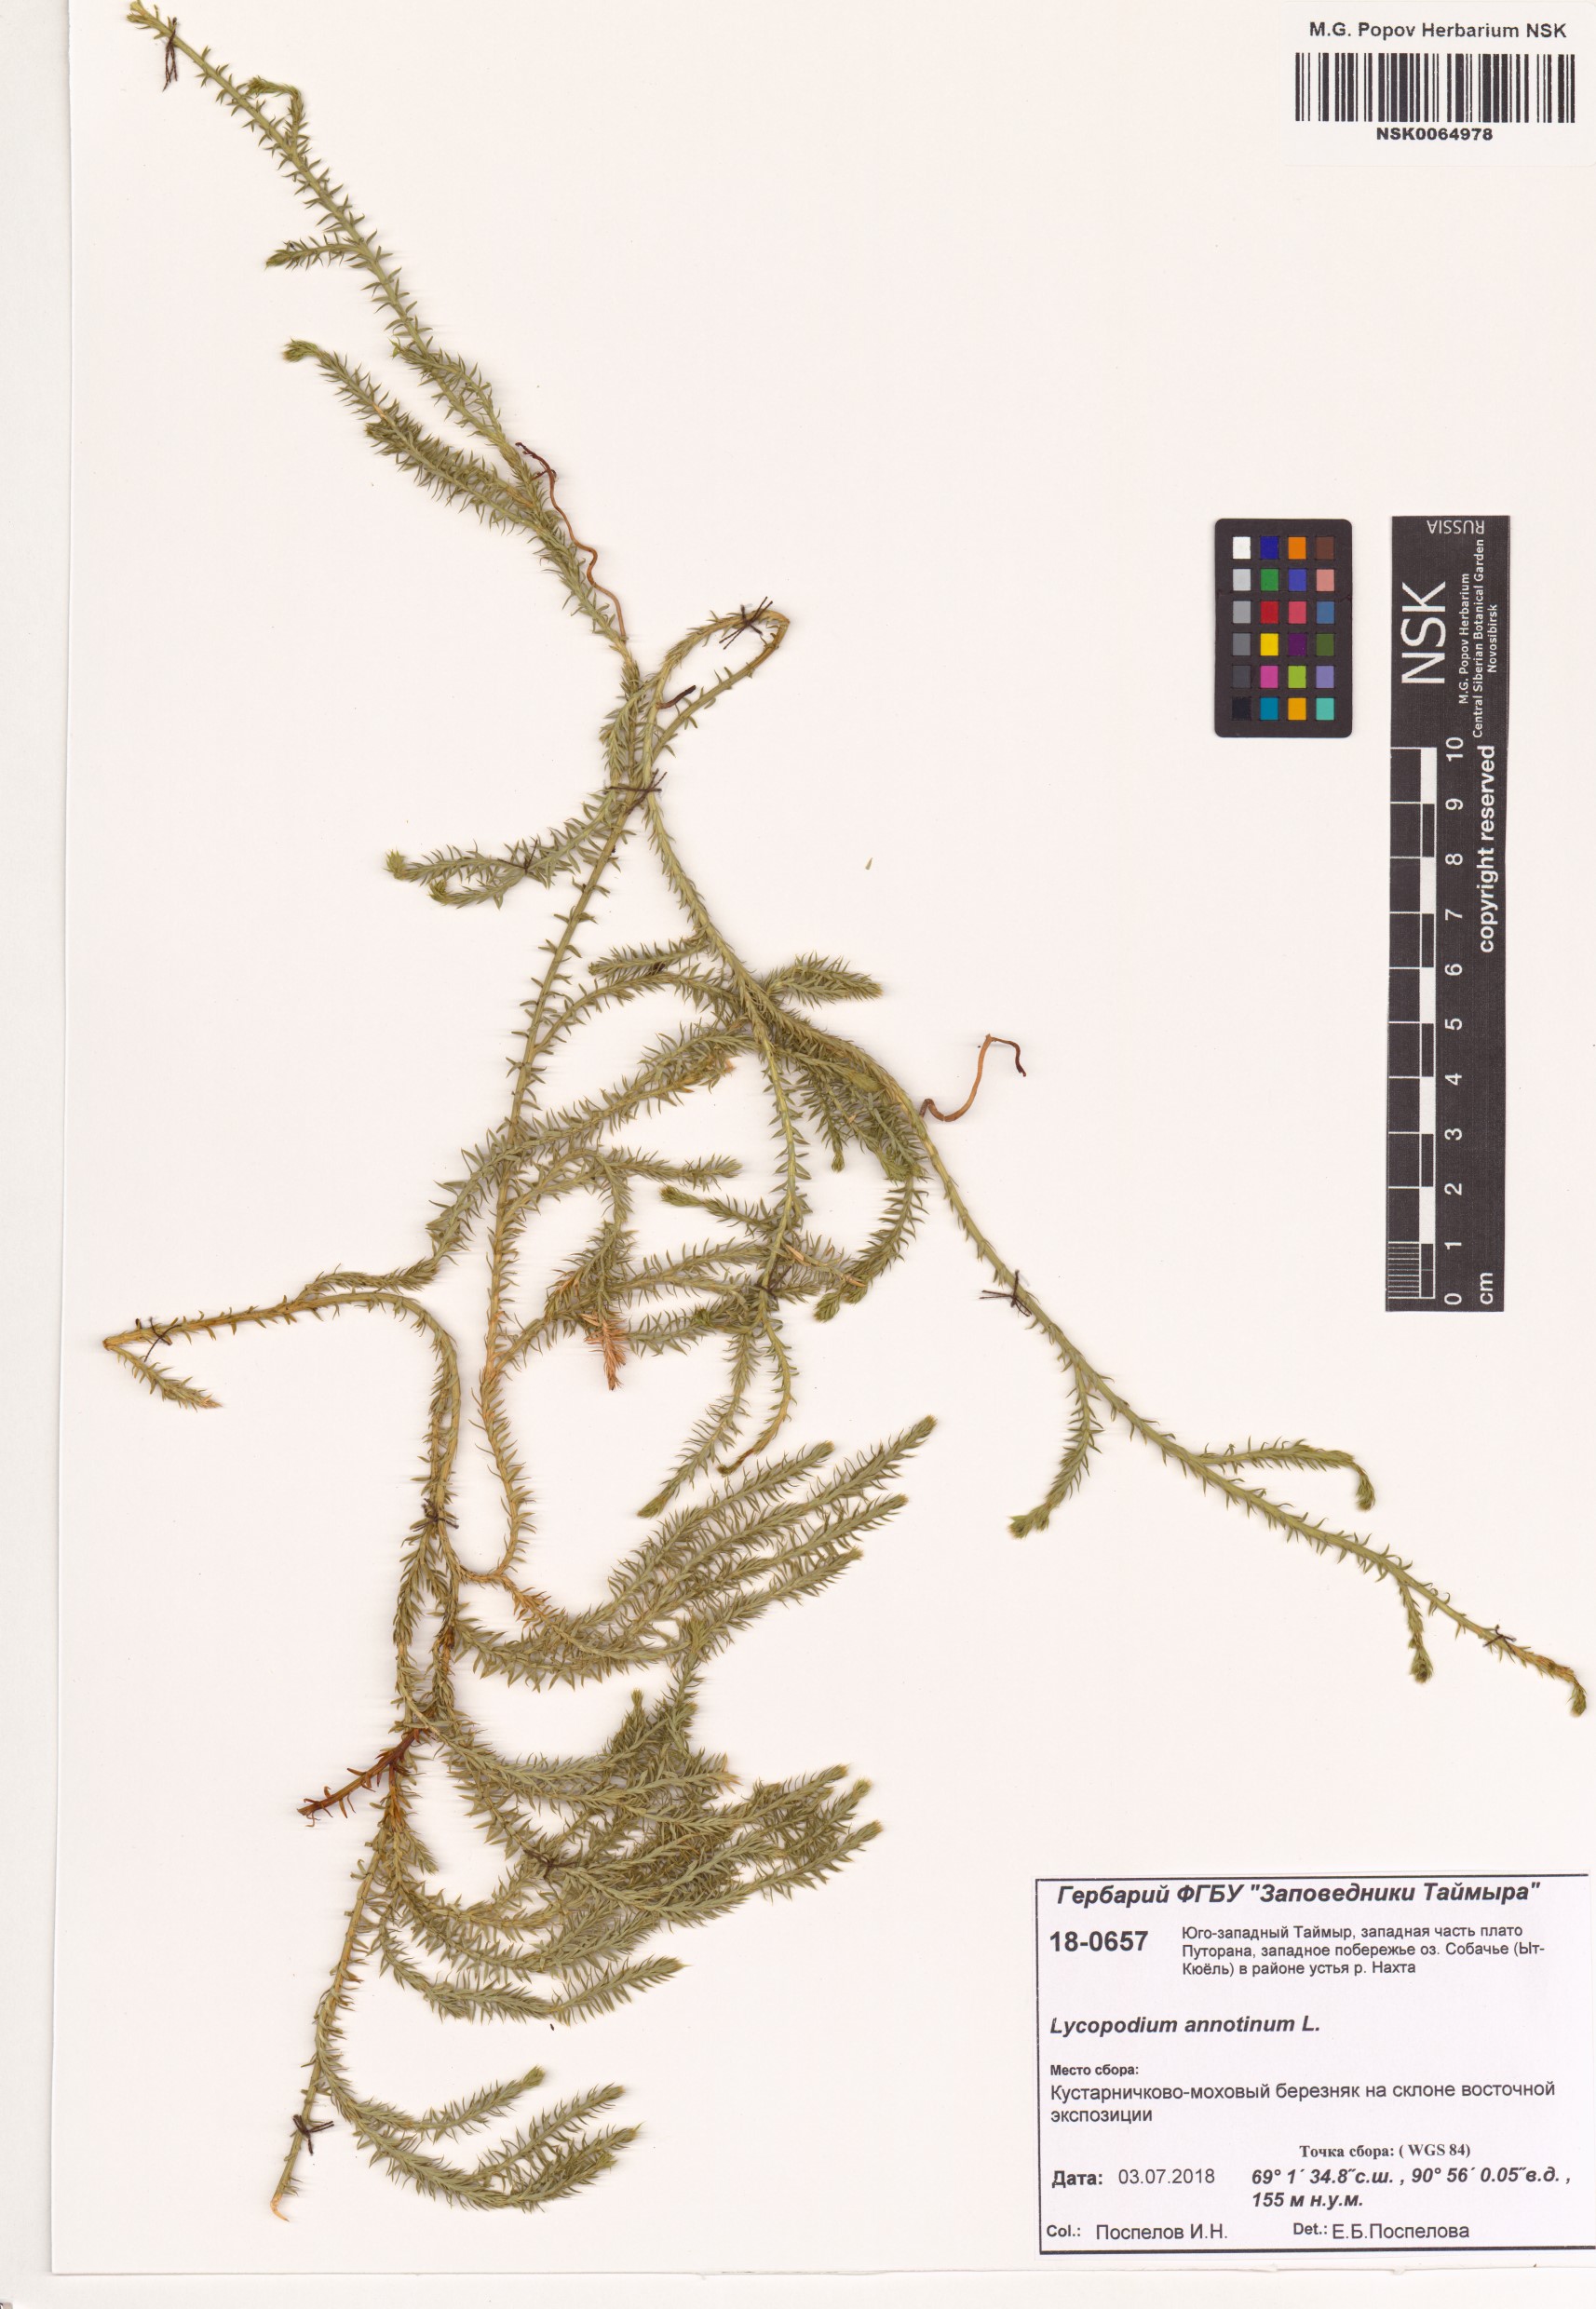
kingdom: Plantae
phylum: Tracheophyta
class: Lycopodiopsida
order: Lycopodiales
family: Lycopodiaceae
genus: Spinulum
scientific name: Spinulum annotinum
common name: Interrupted club-moss
